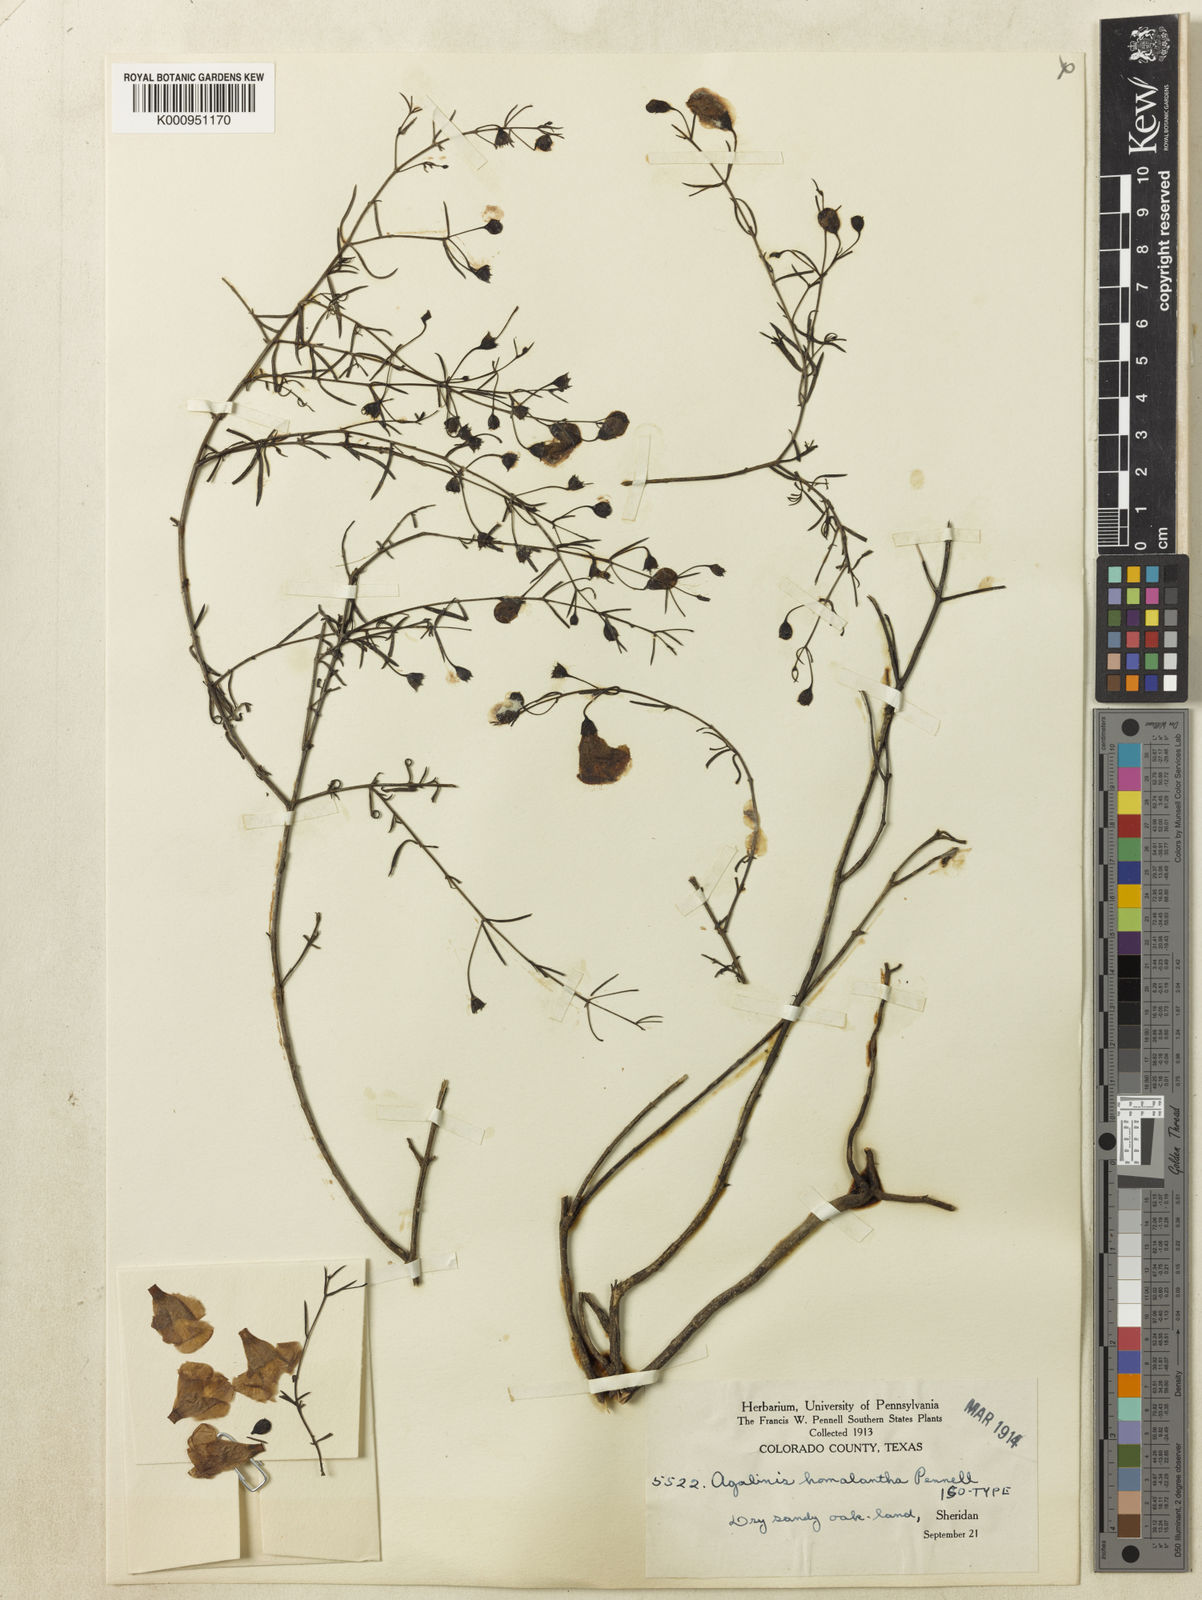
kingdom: Plantae
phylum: Tracheophyta
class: Magnoliopsida
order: Lamiales
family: Orobanchaceae
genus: Agalinis
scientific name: Agalinis homalantha
